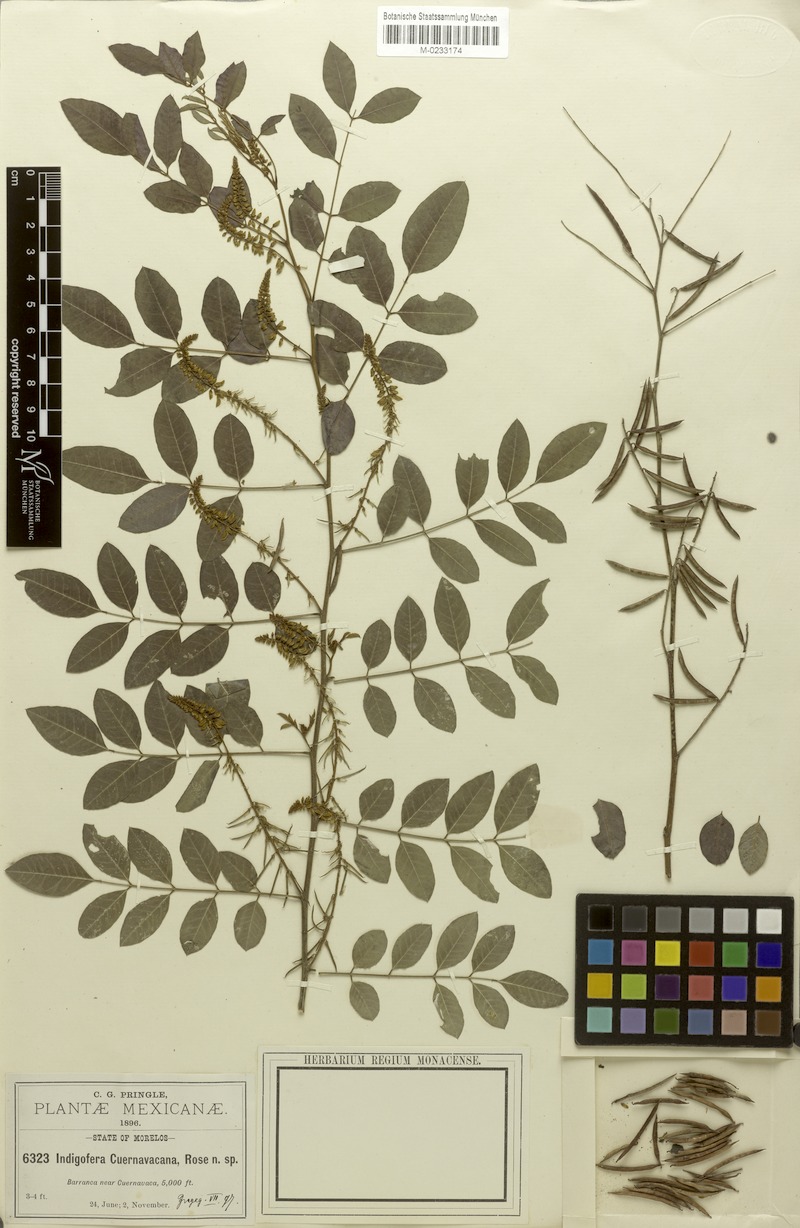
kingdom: Plantae
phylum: Tracheophyta
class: Magnoliopsida
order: Fabales
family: Fabaceae
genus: Indigofera
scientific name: Indigofera cuernavacana
